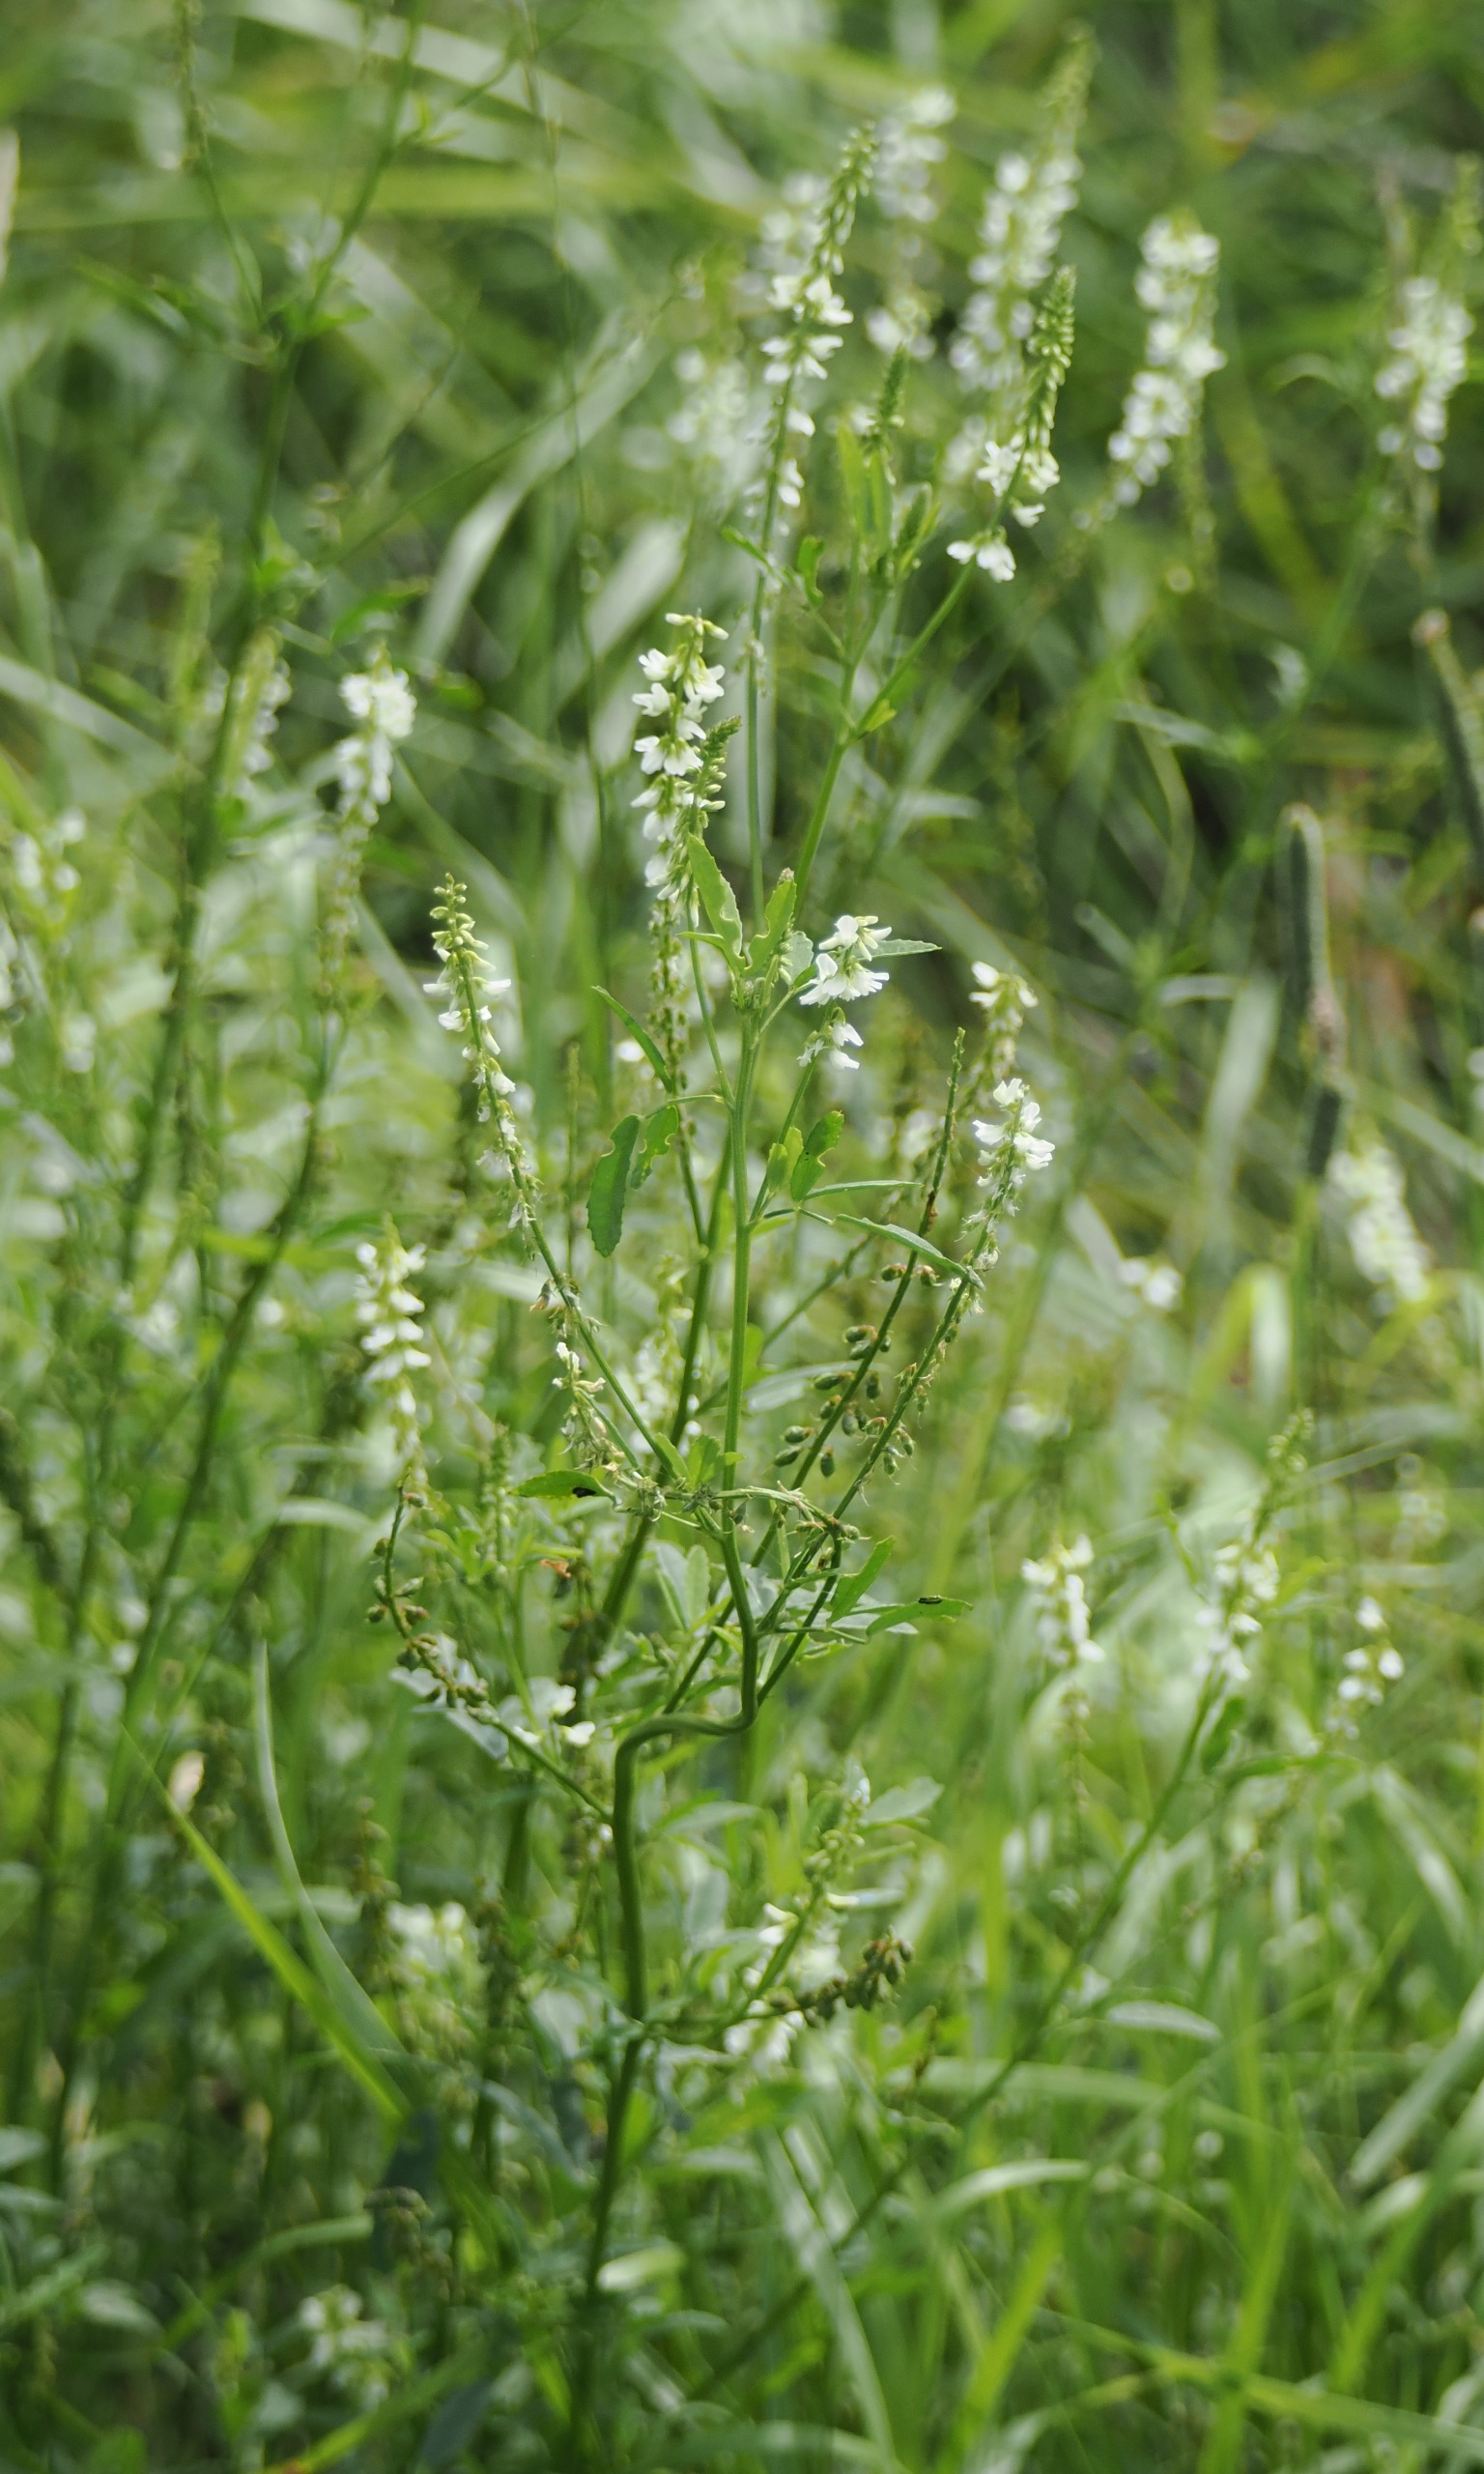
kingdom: Plantae
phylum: Tracheophyta
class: Magnoliopsida
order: Fabales
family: Fabaceae
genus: Melilotus
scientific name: Melilotus albus
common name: Hvid stenkløver
